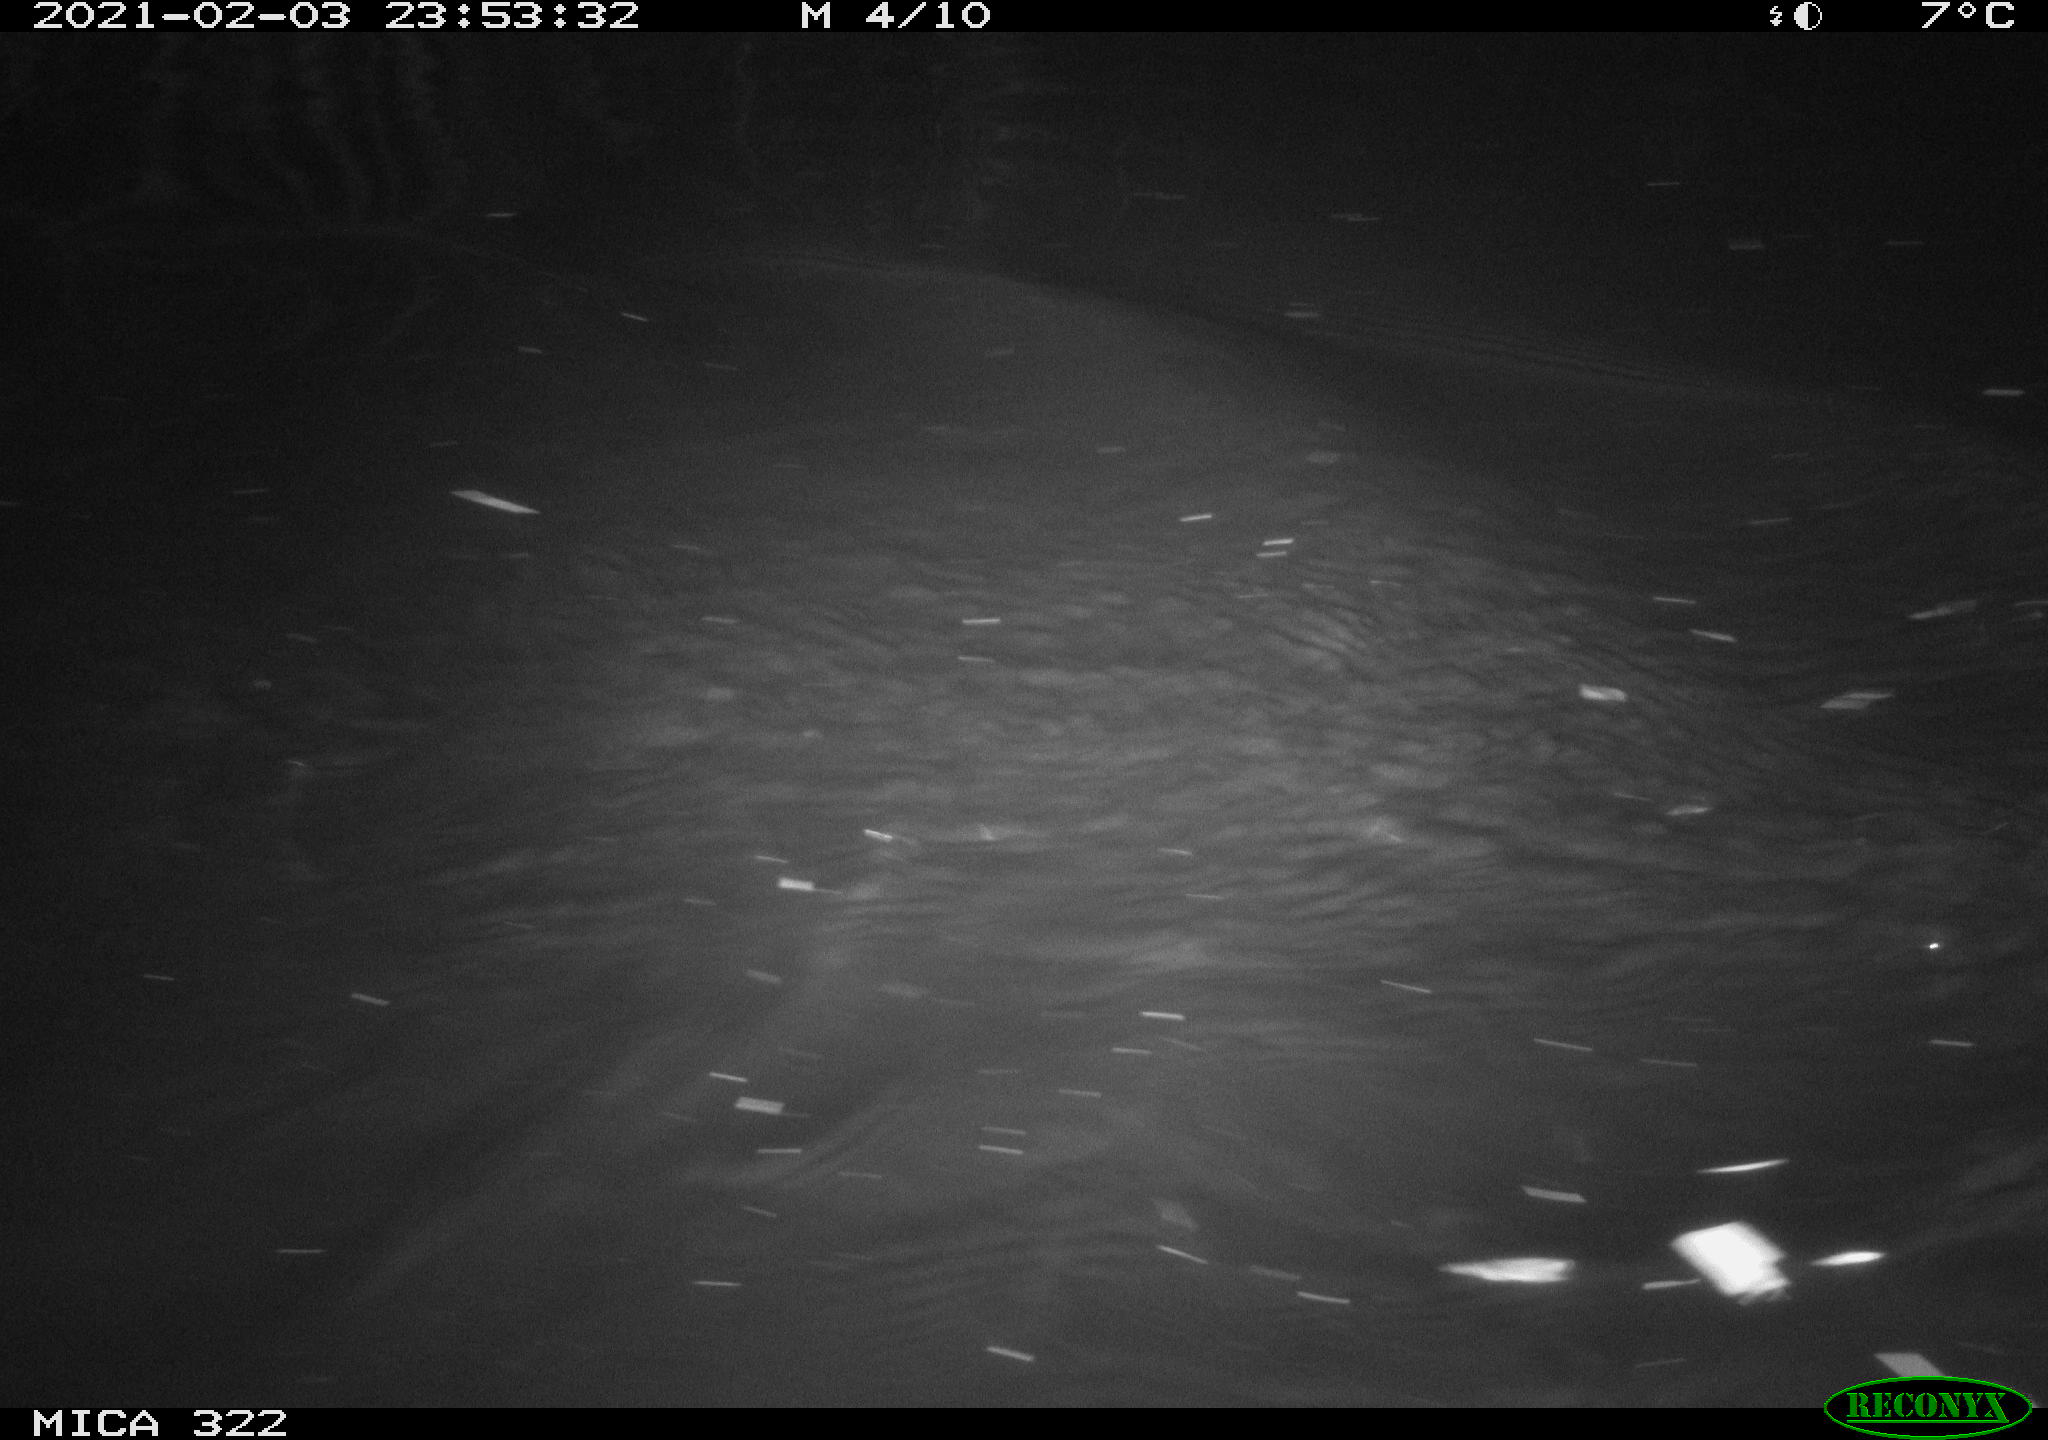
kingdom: Animalia
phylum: Chordata
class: Aves
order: Anseriformes
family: Anatidae
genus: Anas
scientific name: Anas platyrhynchos
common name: Mallard
